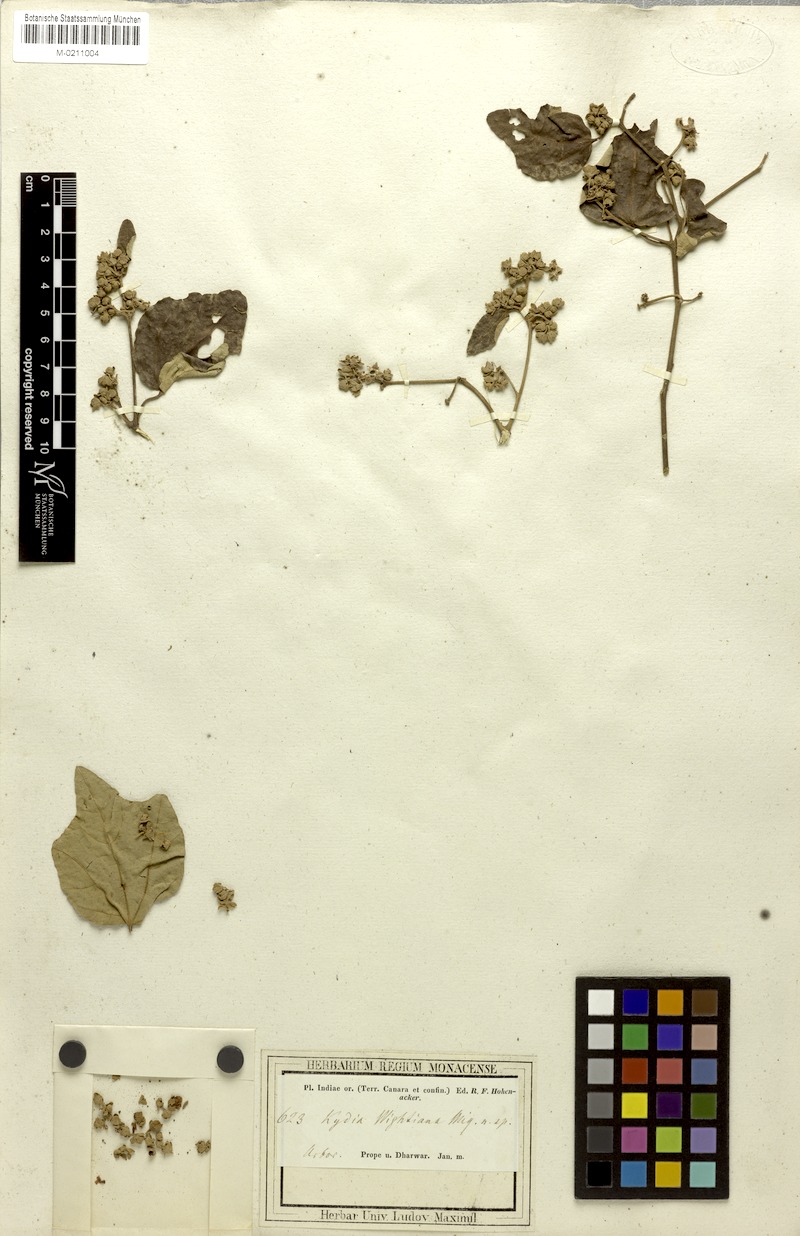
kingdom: Plantae
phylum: Tracheophyta
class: Magnoliopsida
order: Malvales
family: Malvaceae
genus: Kydia
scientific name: Kydia calycina
